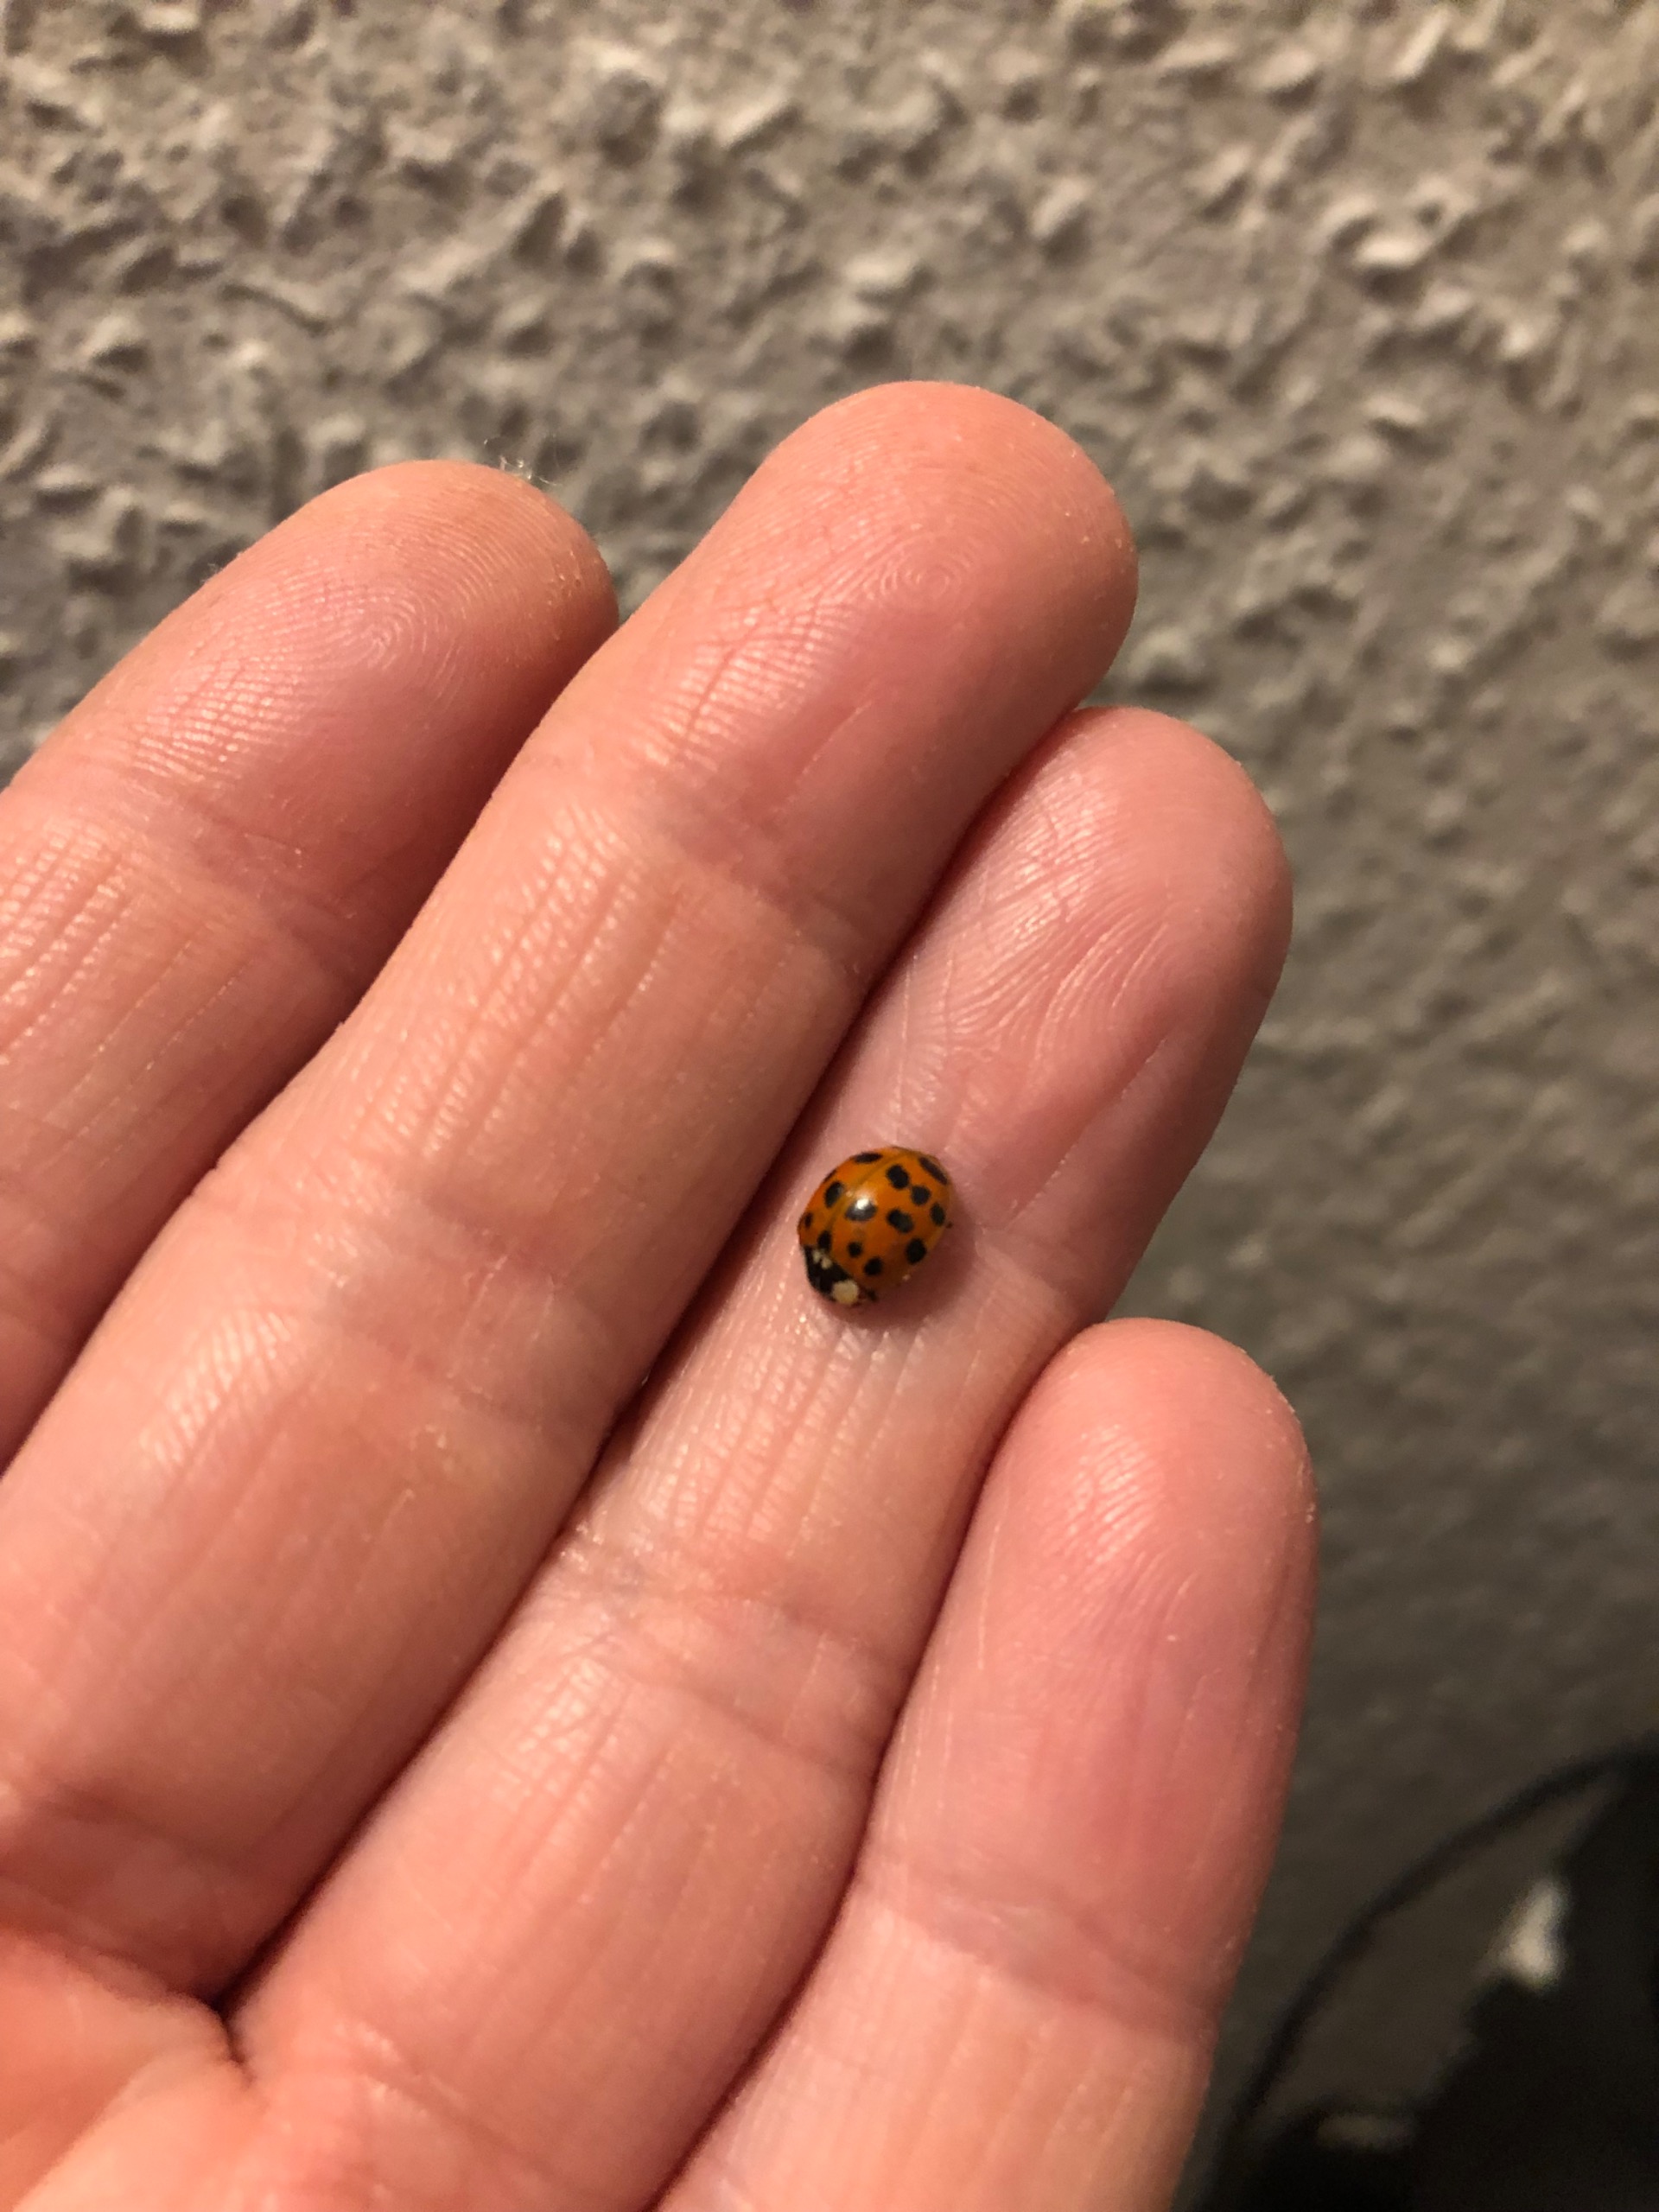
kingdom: Animalia
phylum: Arthropoda
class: Insecta
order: Coleoptera
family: Coccinellidae
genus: Harmonia
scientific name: Harmonia axyridis
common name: Harlekinmariehøne
